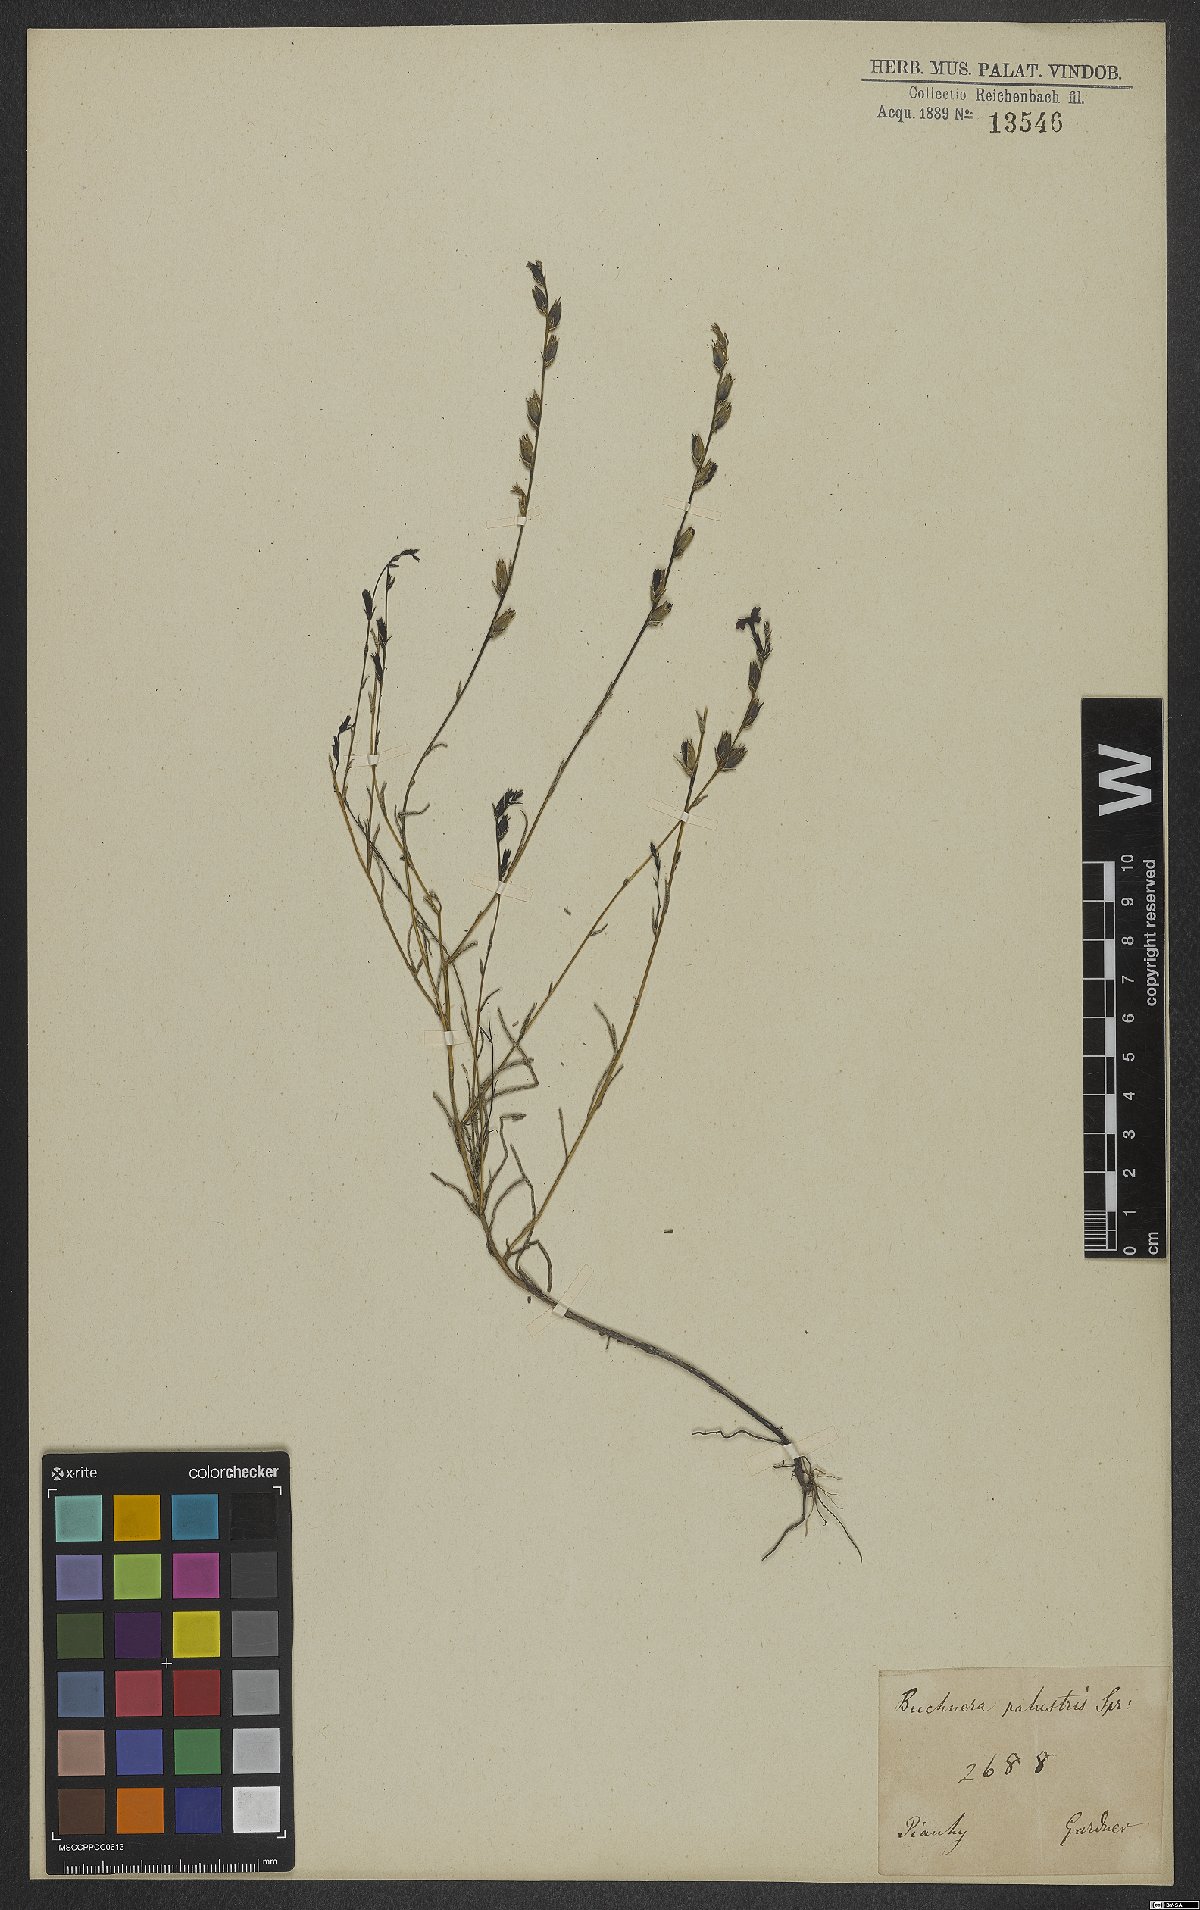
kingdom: Plantae
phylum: Tracheophyta
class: Magnoliopsida
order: Lamiales
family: Orobanchaceae
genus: Buchnera
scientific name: Buchnera palustris
